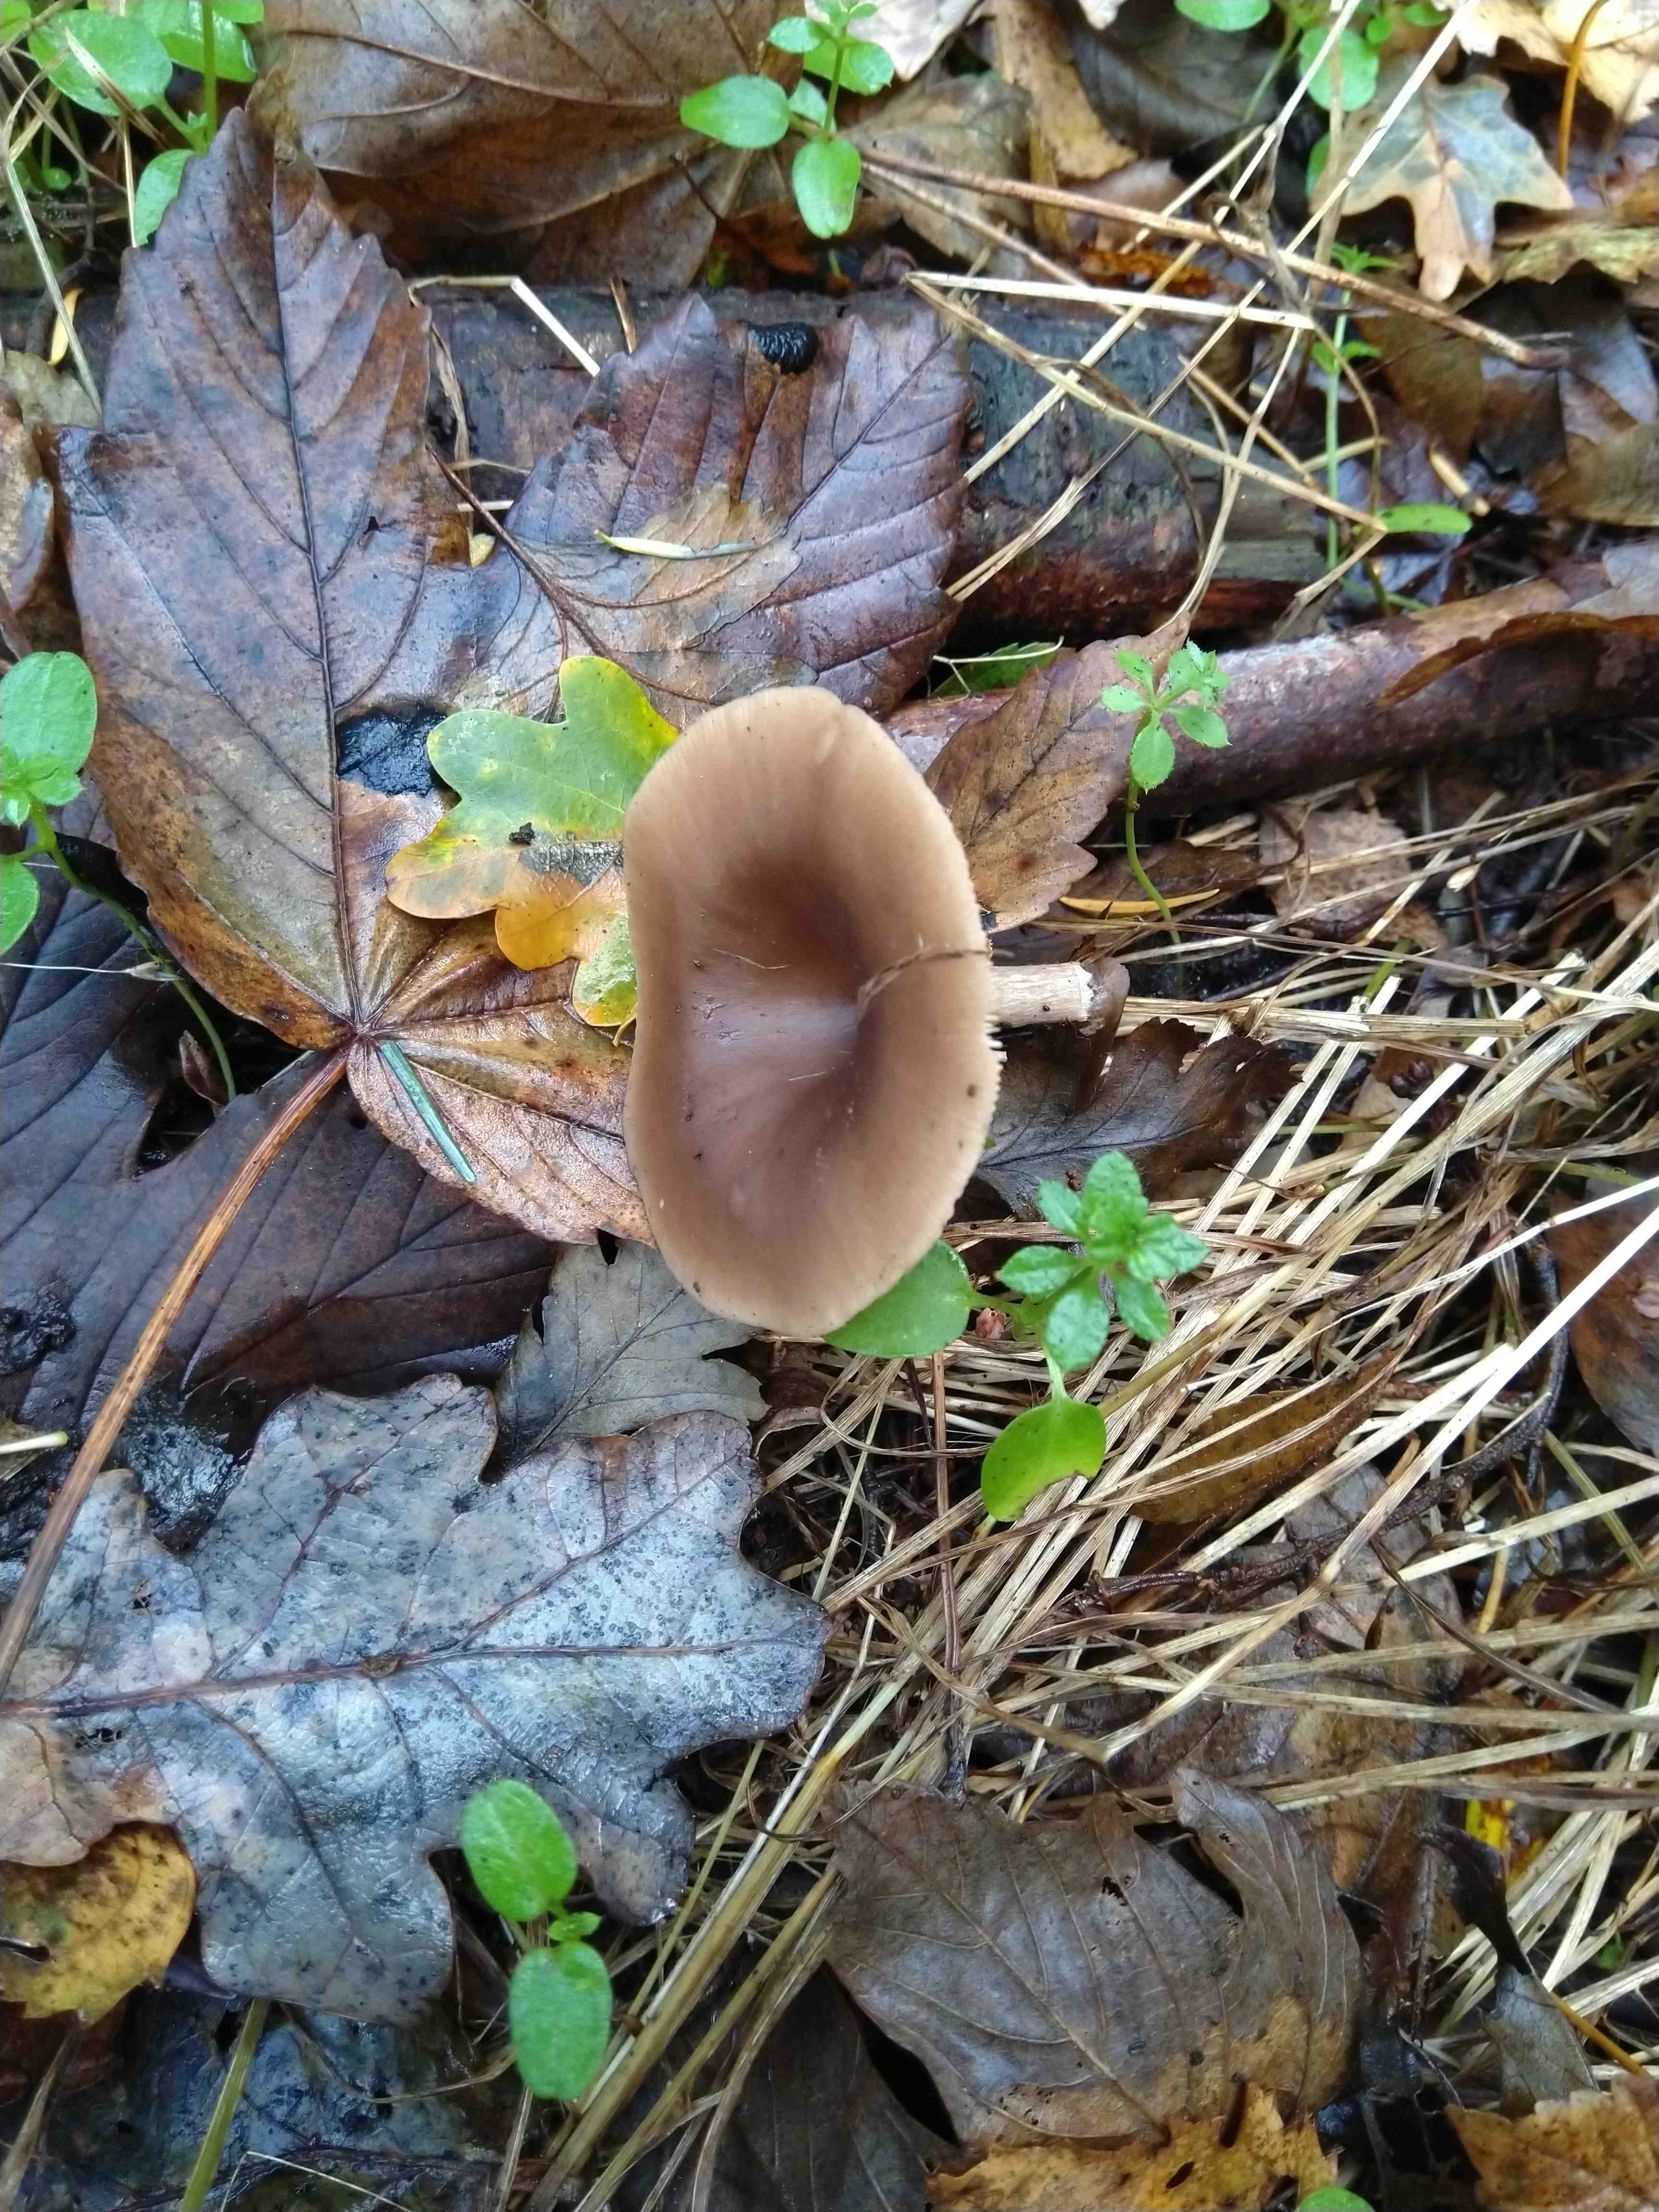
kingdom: Fungi
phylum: Basidiomycota
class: Agaricomycetes
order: Agaricales
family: Pseudoclitocybaceae
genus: Pseudoclitocybe
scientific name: Pseudoclitocybe cyathiformis
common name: almindelig bægertragthat
